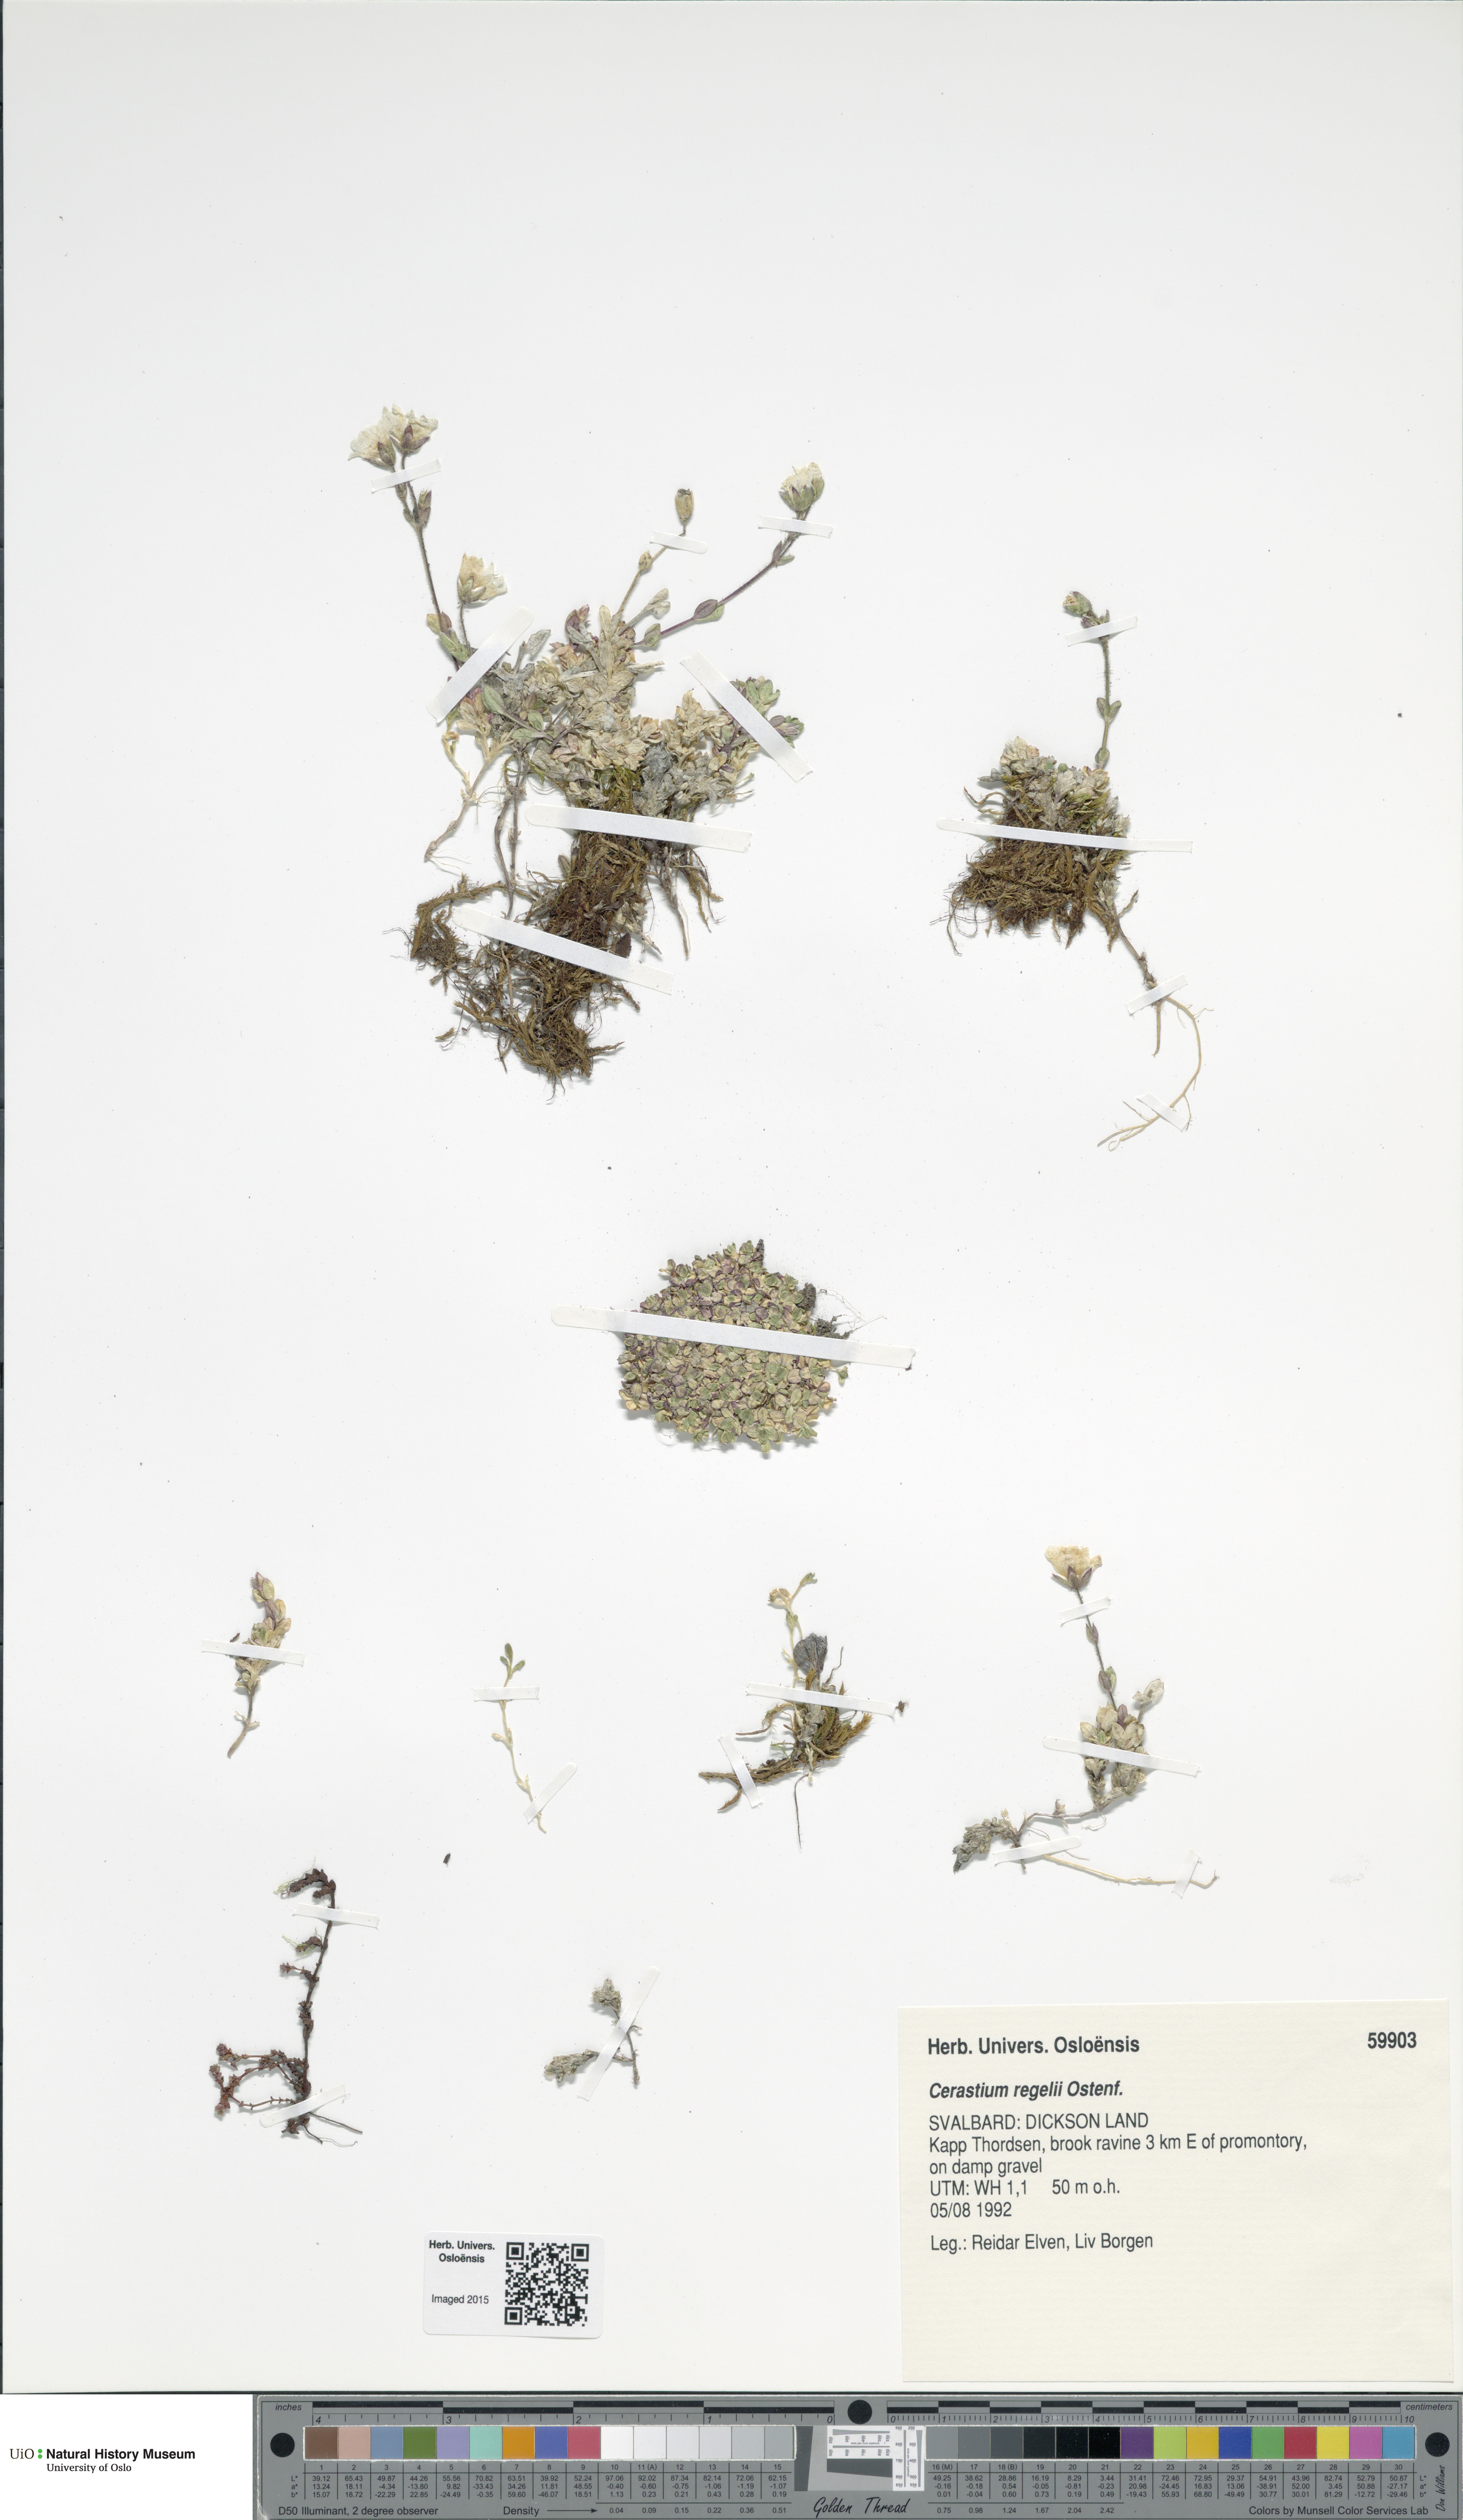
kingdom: Plantae
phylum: Tracheophyta
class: Magnoliopsida
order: Caryophyllales
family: Caryophyllaceae
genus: Cerastium
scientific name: Cerastium regelii
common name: Regel's chickweed
